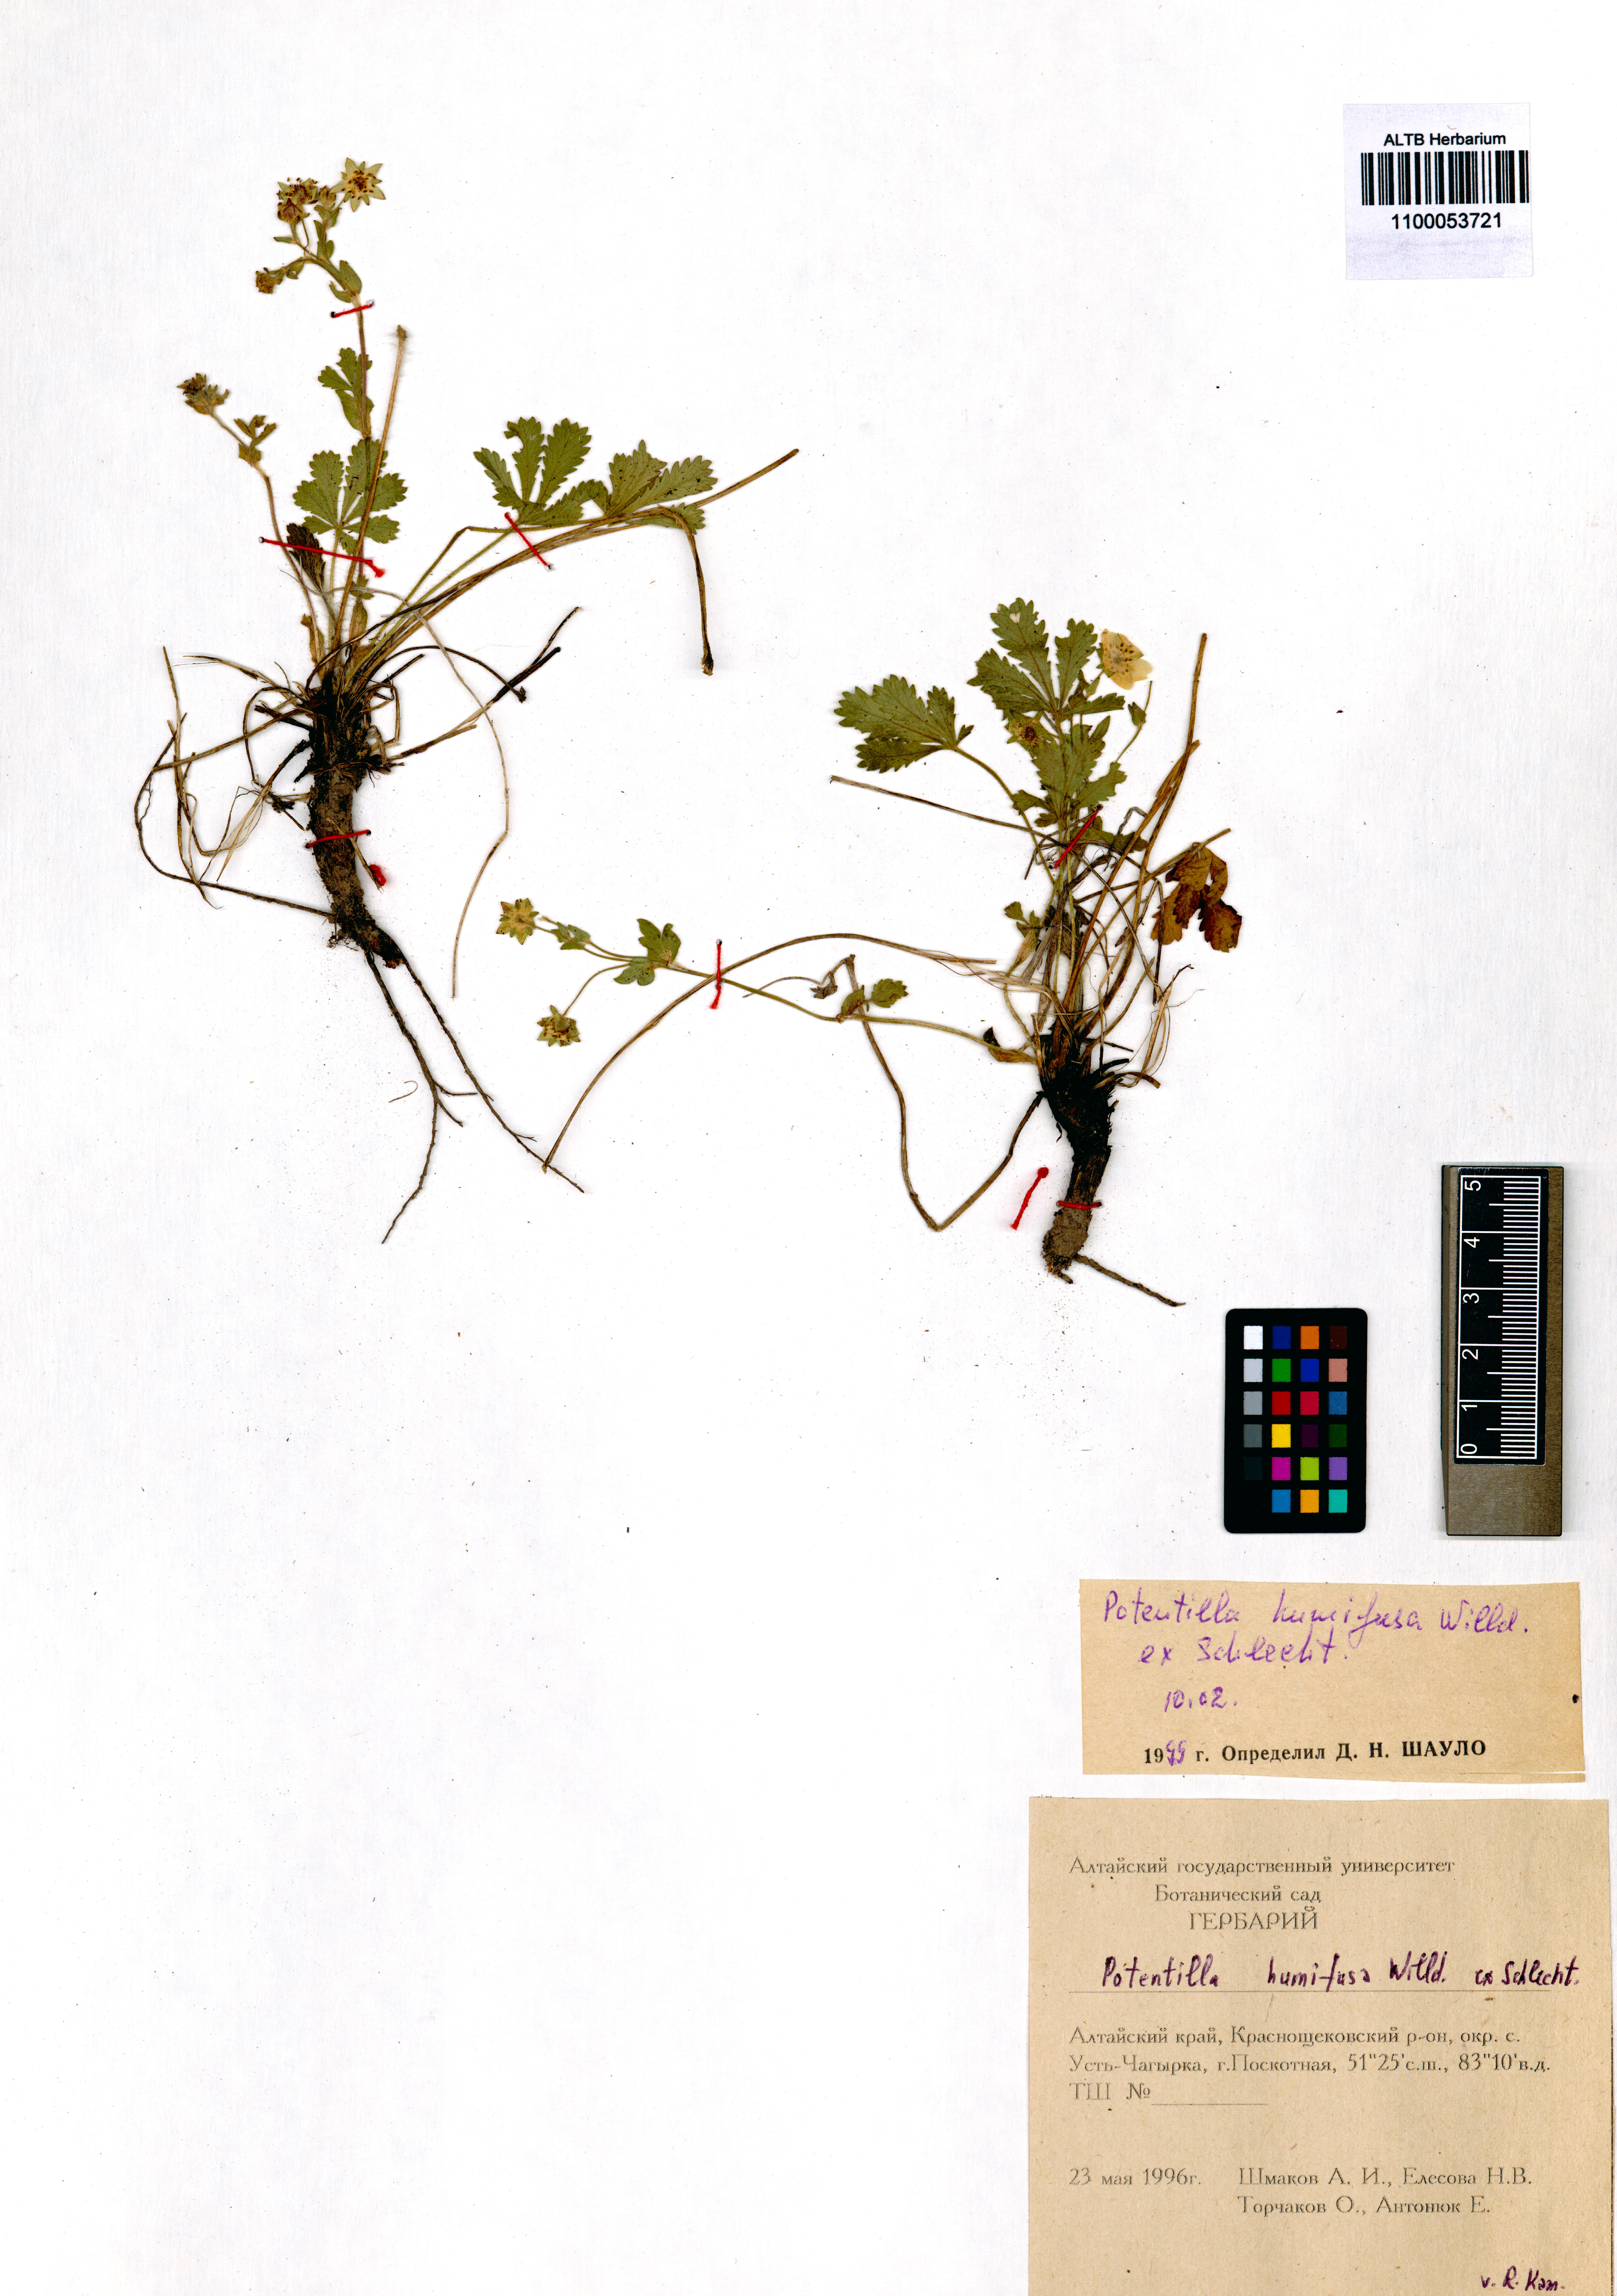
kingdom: Plantae
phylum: Tracheophyta
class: Magnoliopsida
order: Rosales
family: Rosaceae
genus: Potentilla
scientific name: Potentilla humifusa
